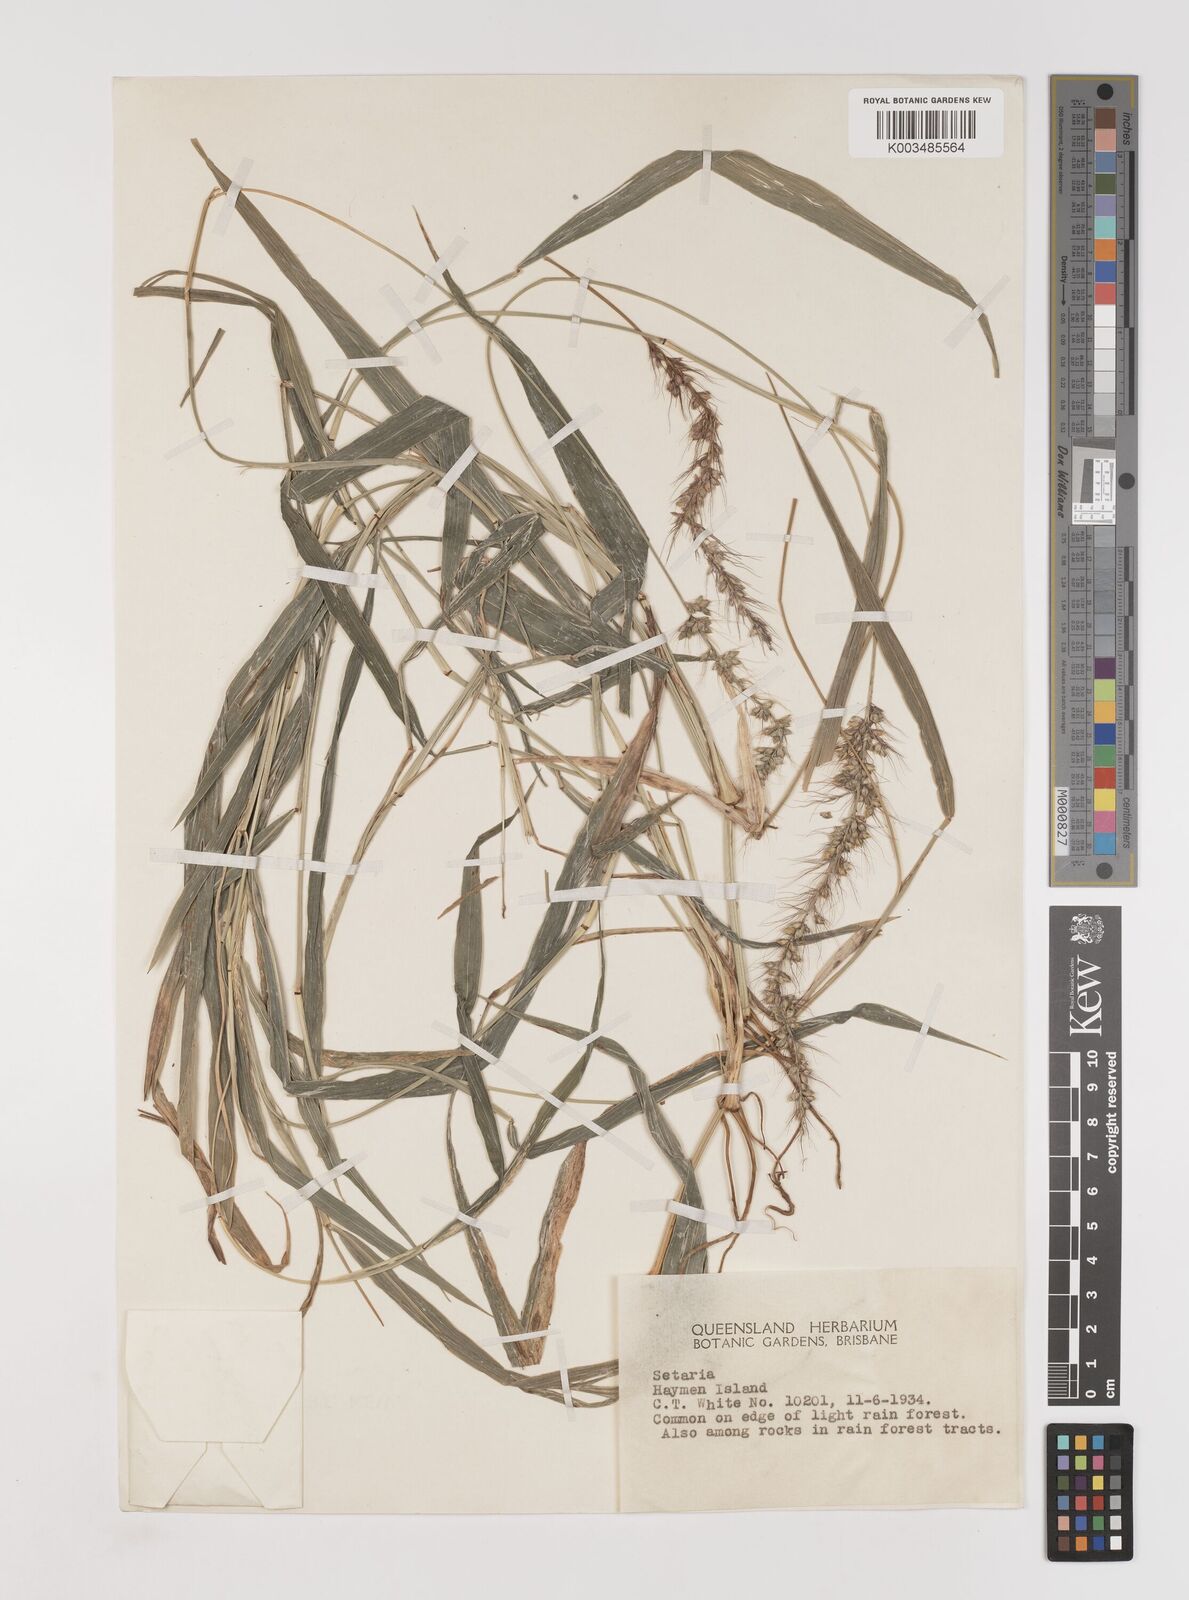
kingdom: Plantae
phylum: Tracheophyta
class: Liliopsida
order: Poales
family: Poaceae
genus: Setaria
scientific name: Setaria
